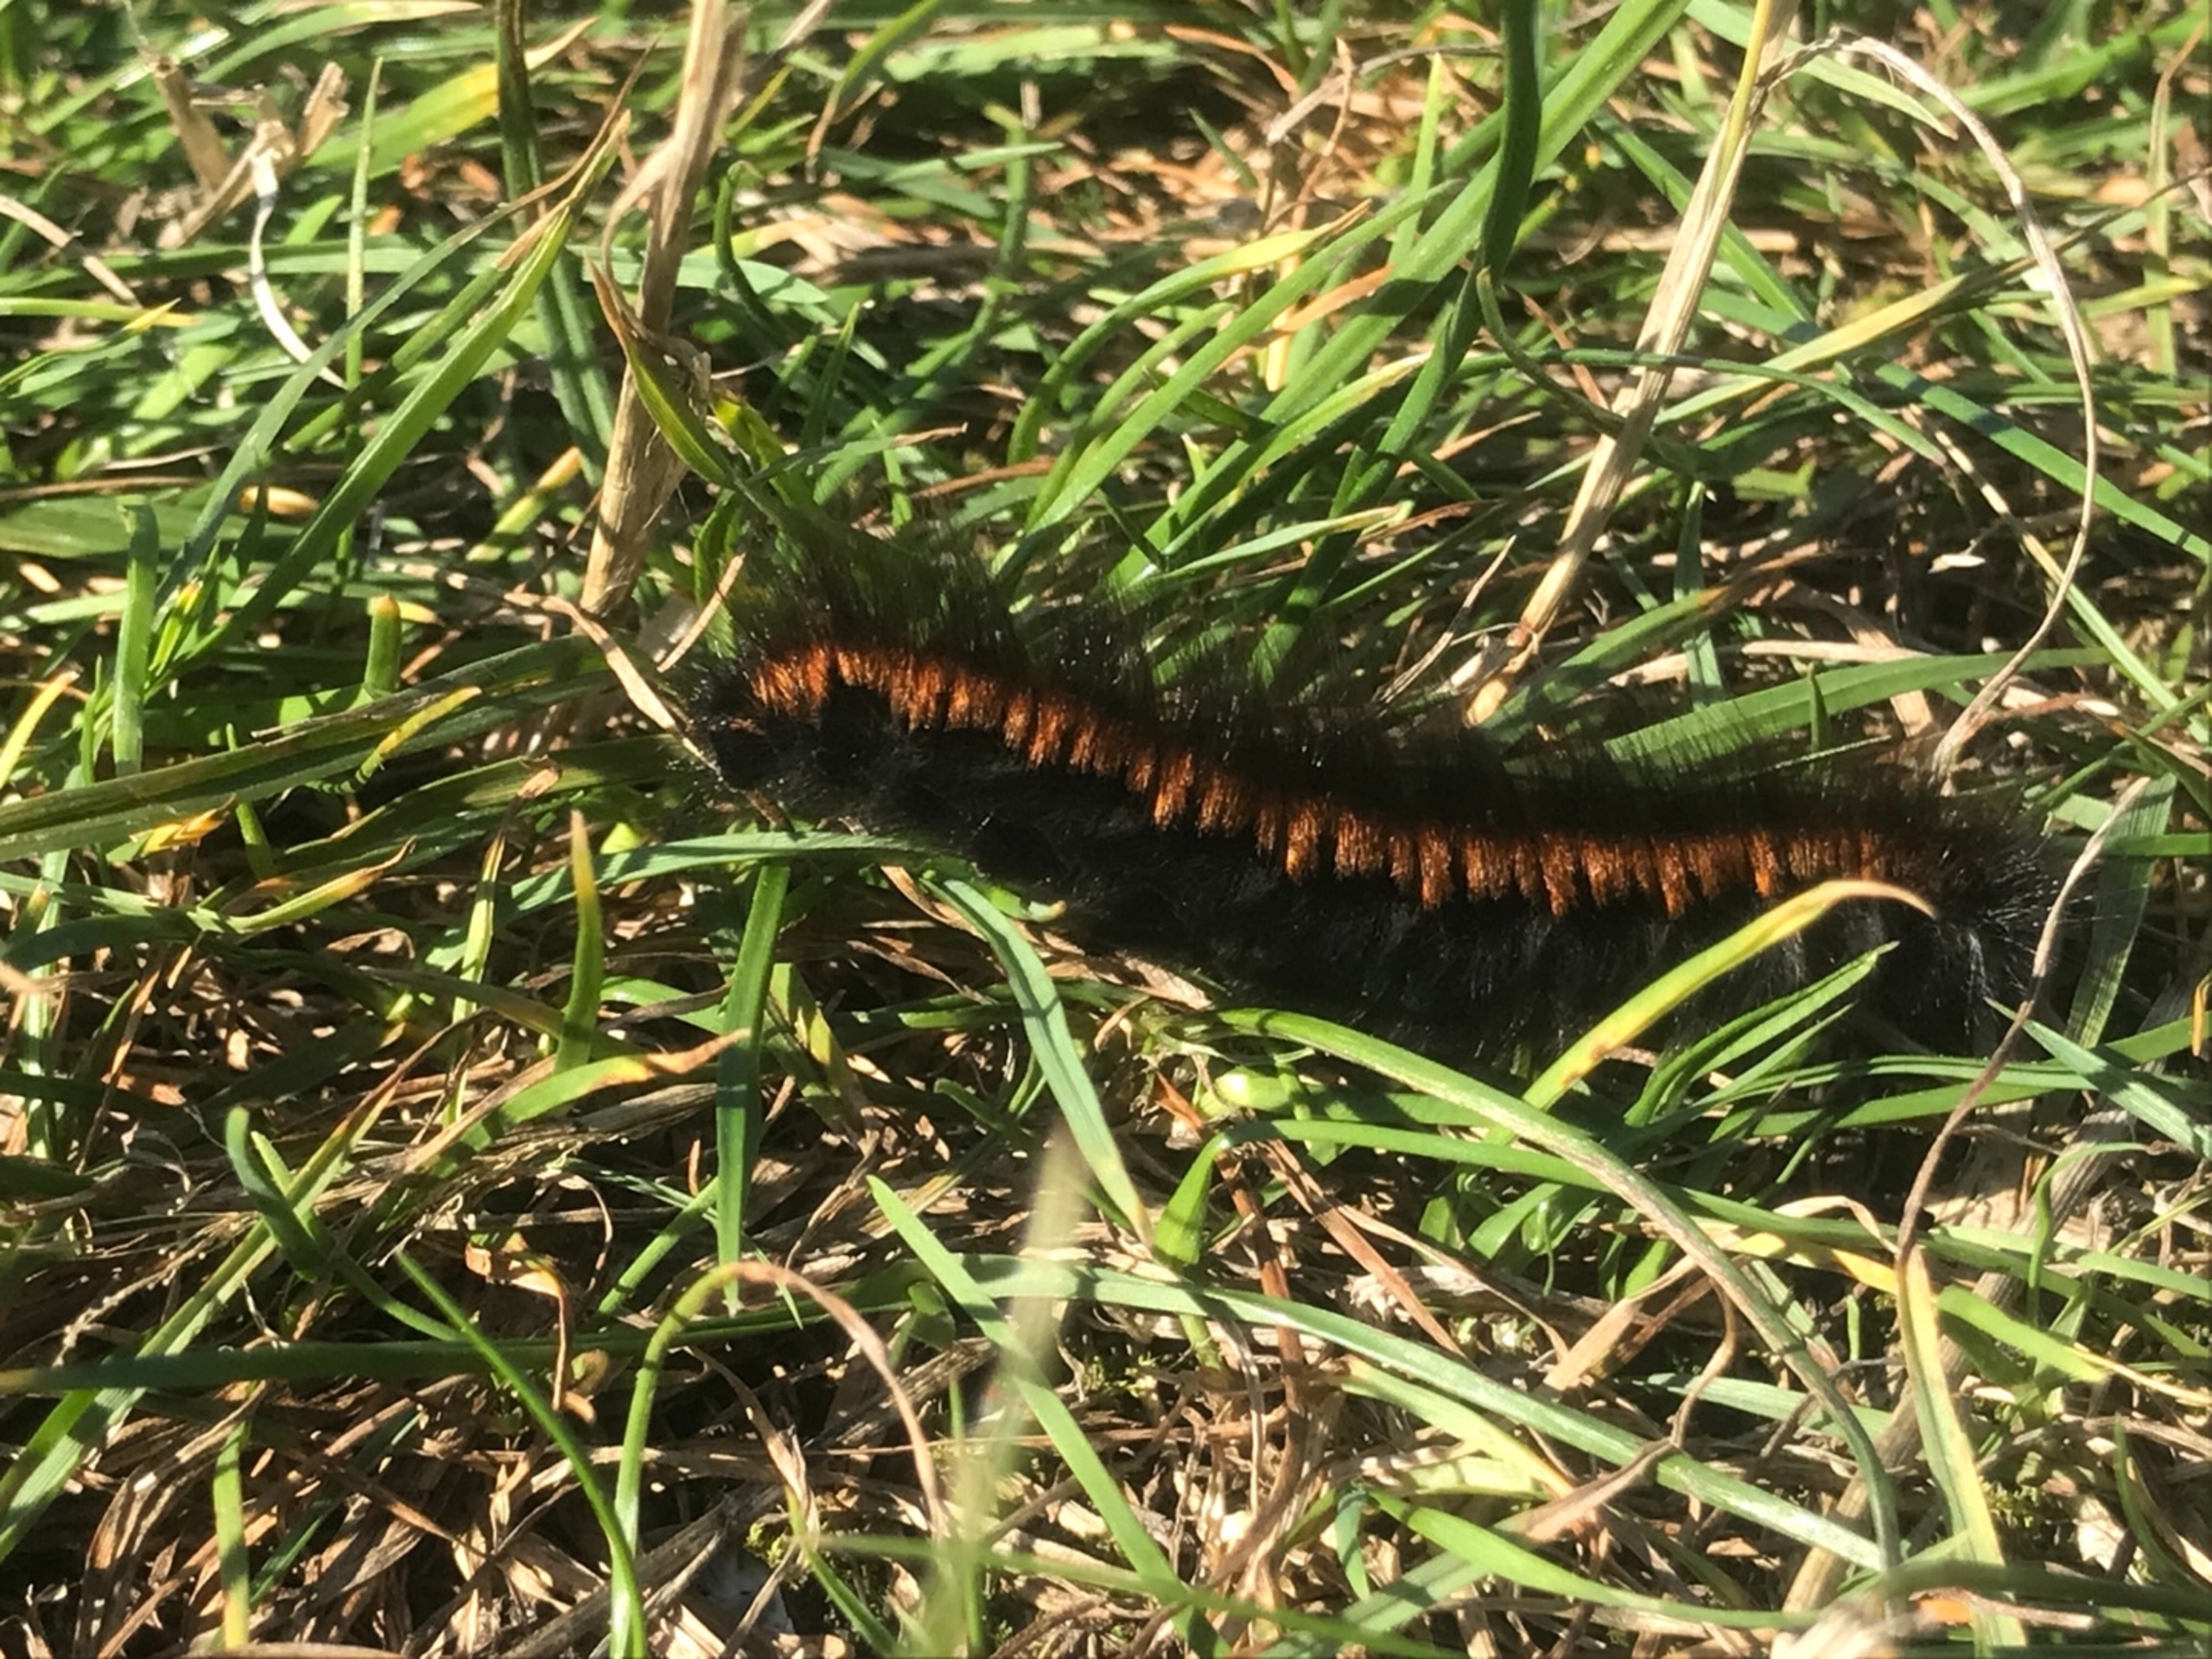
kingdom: Animalia
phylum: Arthropoda
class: Insecta
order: Lepidoptera
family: Lasiocampidae
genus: Macrothylacia
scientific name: Macrothylacia rubi
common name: Brombærspinder
